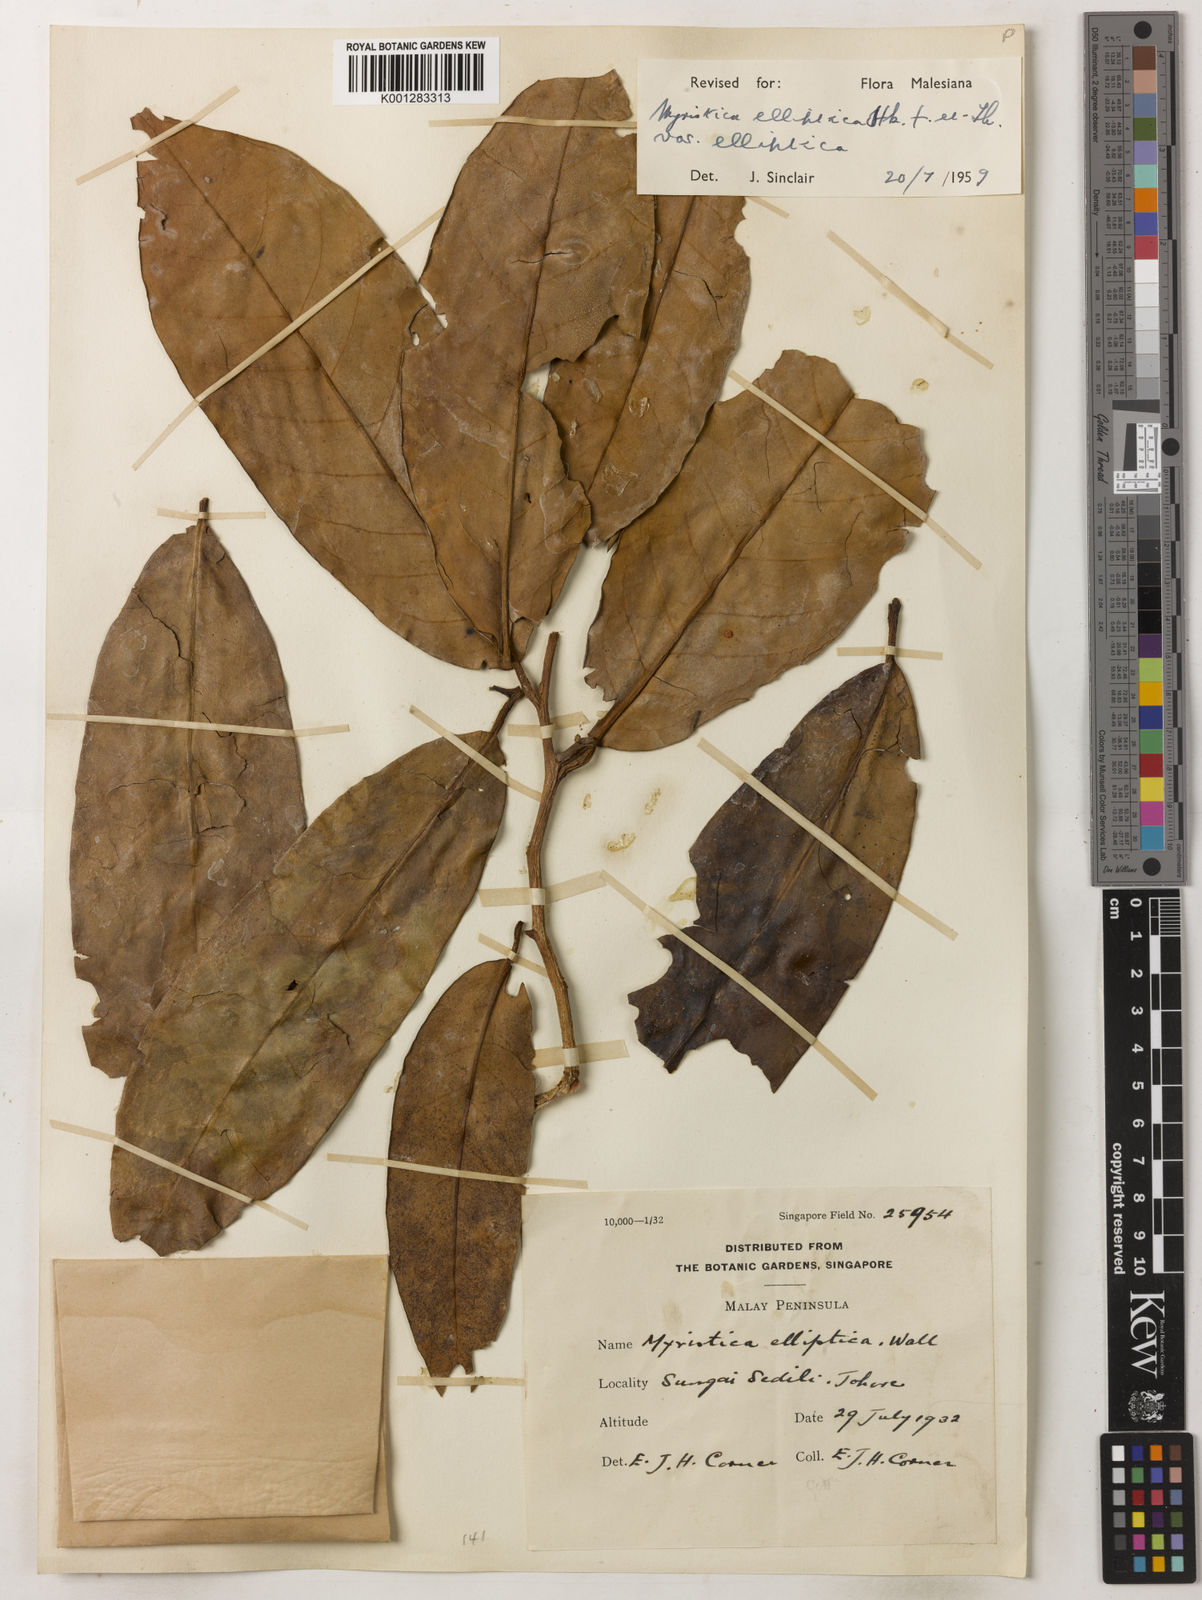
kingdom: Plantae
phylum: Tracheophyta
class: Magnoliopsida
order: Magnoliales
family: Myristicaceae
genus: Myristica
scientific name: Myristica elliptica
